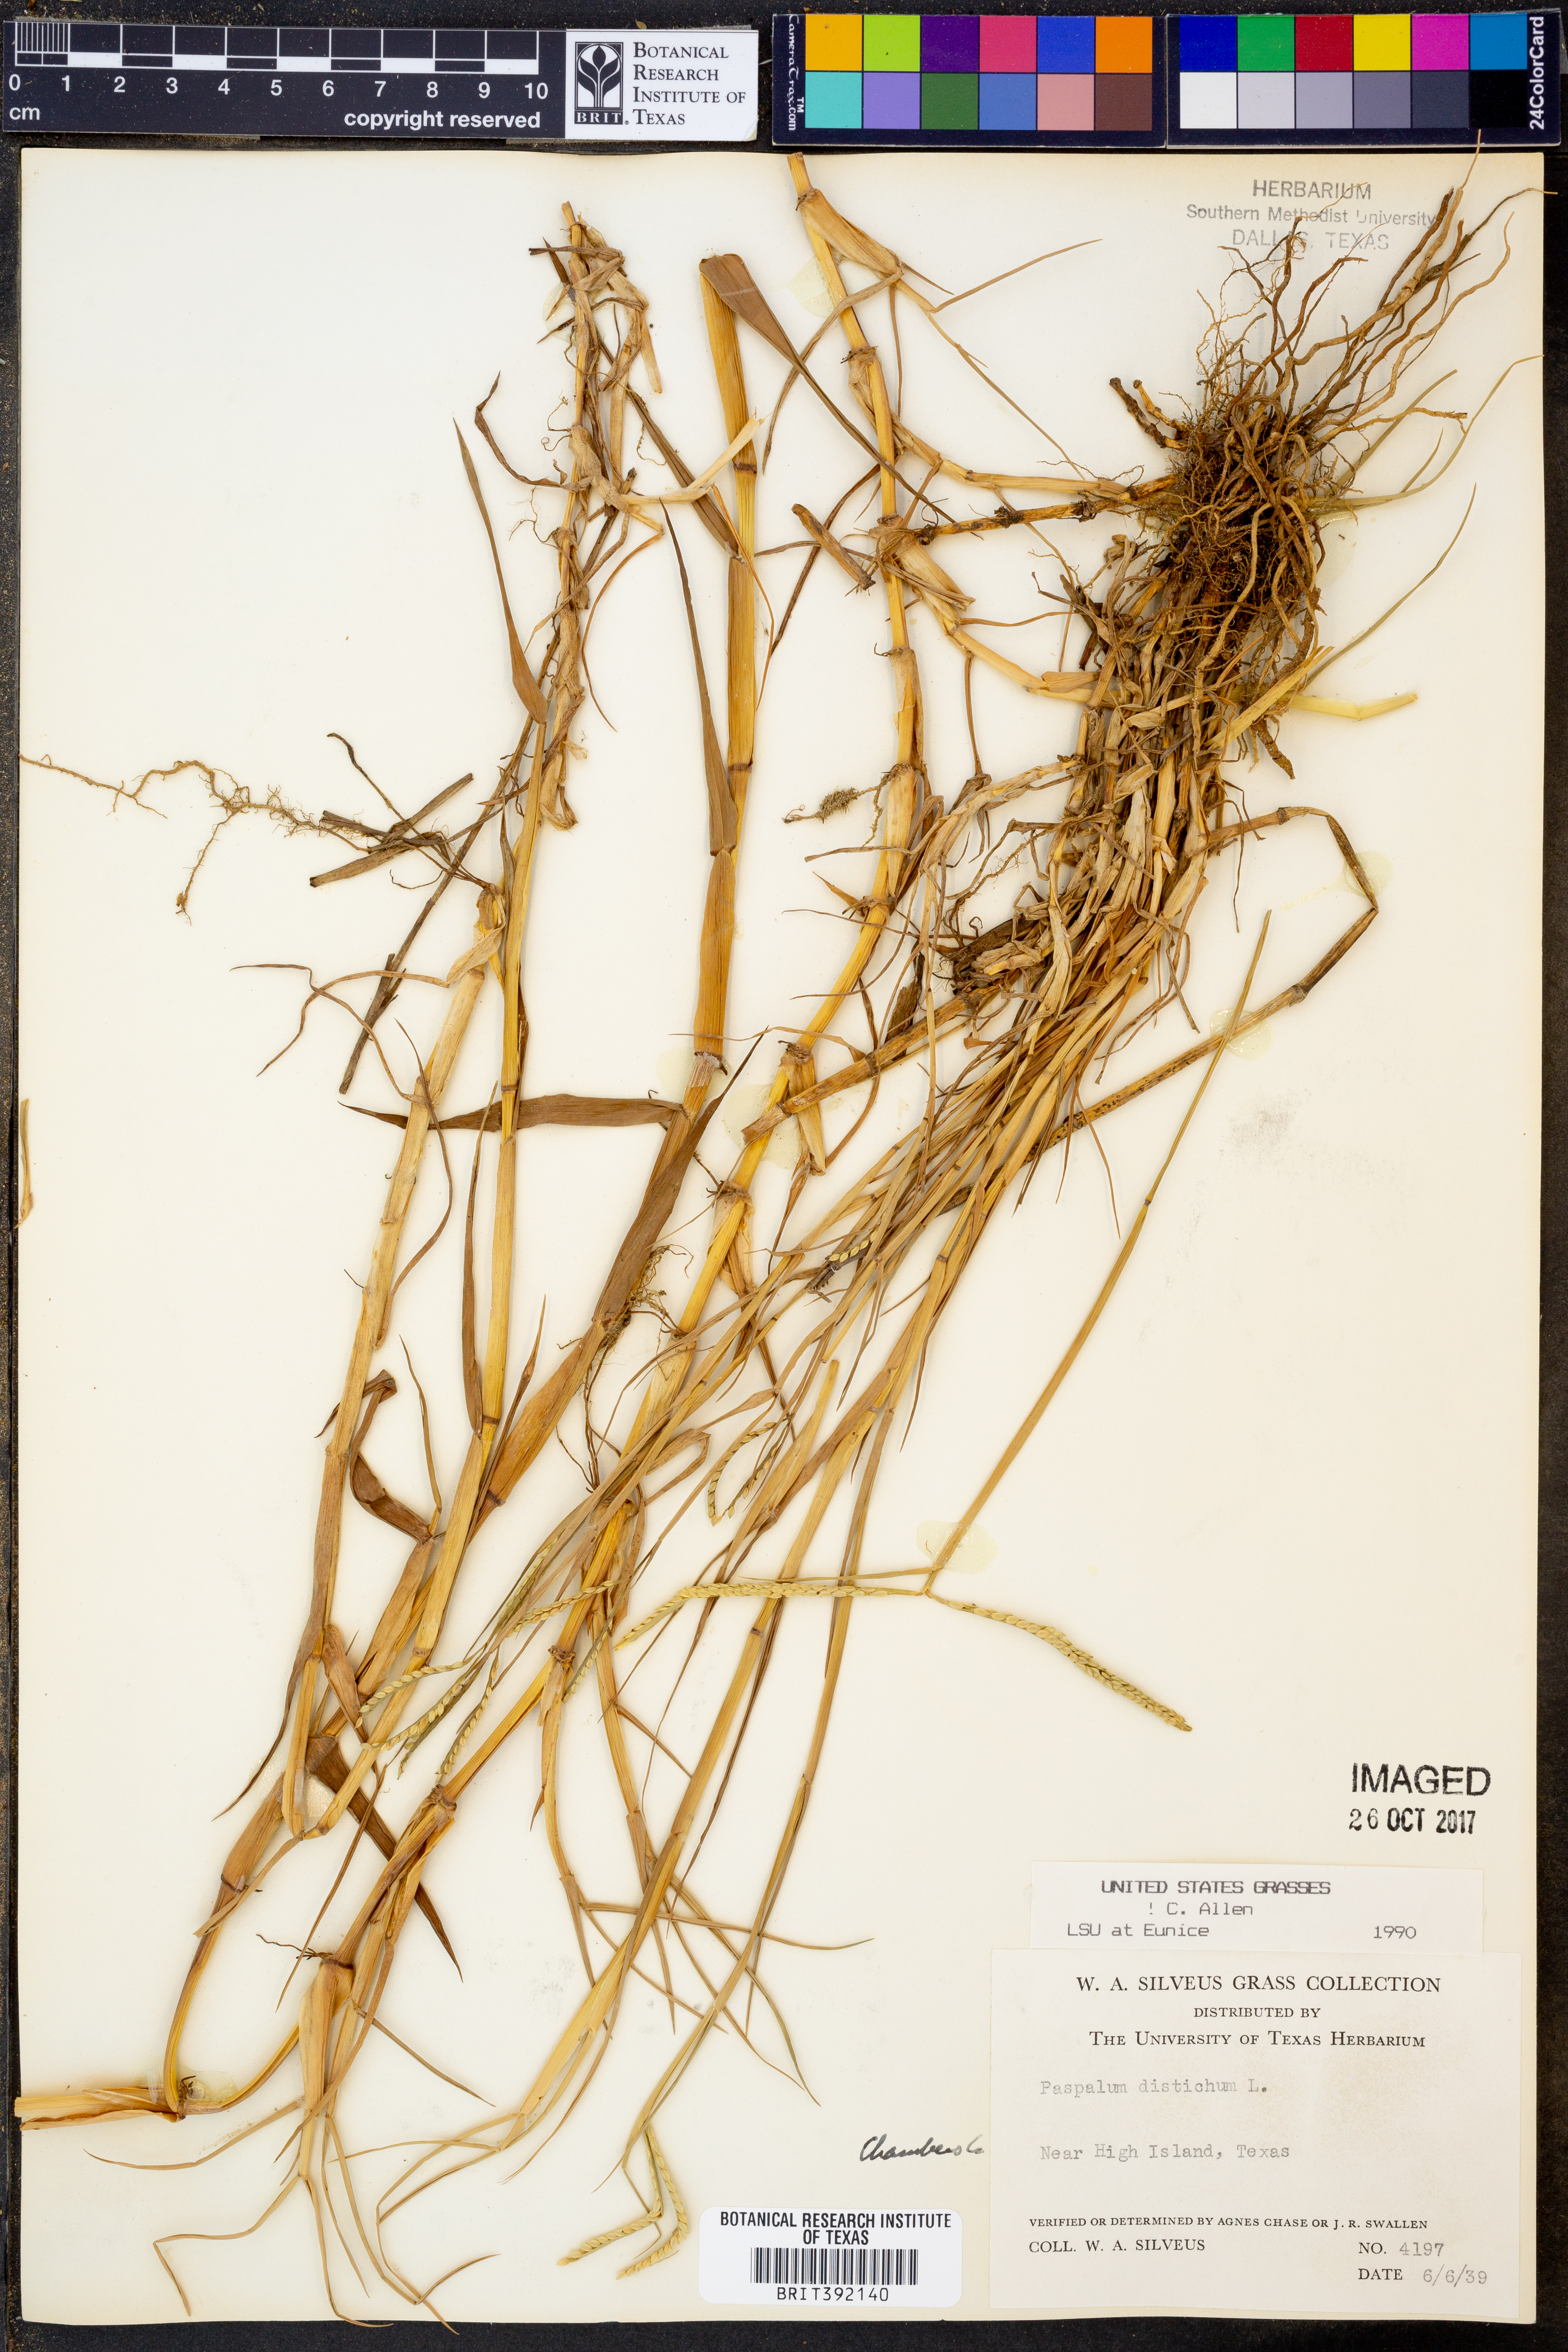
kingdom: Plantae
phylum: Tracheophyta
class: Liliopsida
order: Poales
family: Poaceae
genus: Paspalum
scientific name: Paspalum distichum
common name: Knotgrass
